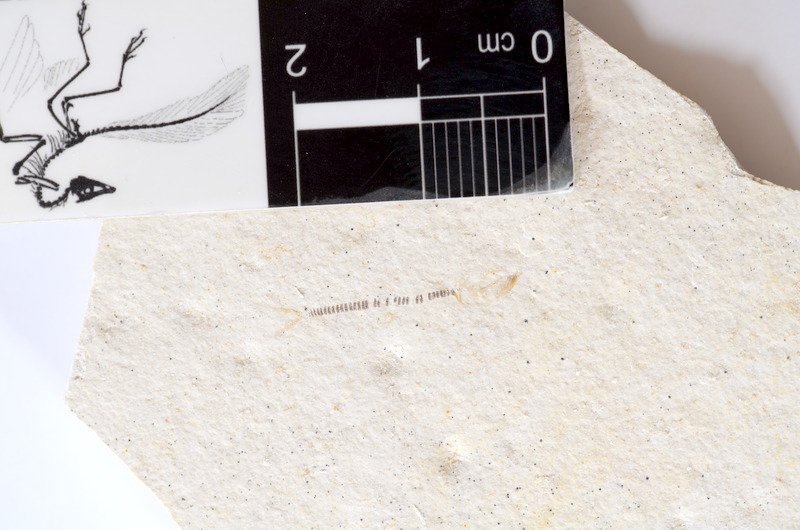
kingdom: Animalia
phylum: Chordata
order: Salmoniformes
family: Orthogonikleithridae
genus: Orthogonikleithrus
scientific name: Orthogonikleithrus hoelli
